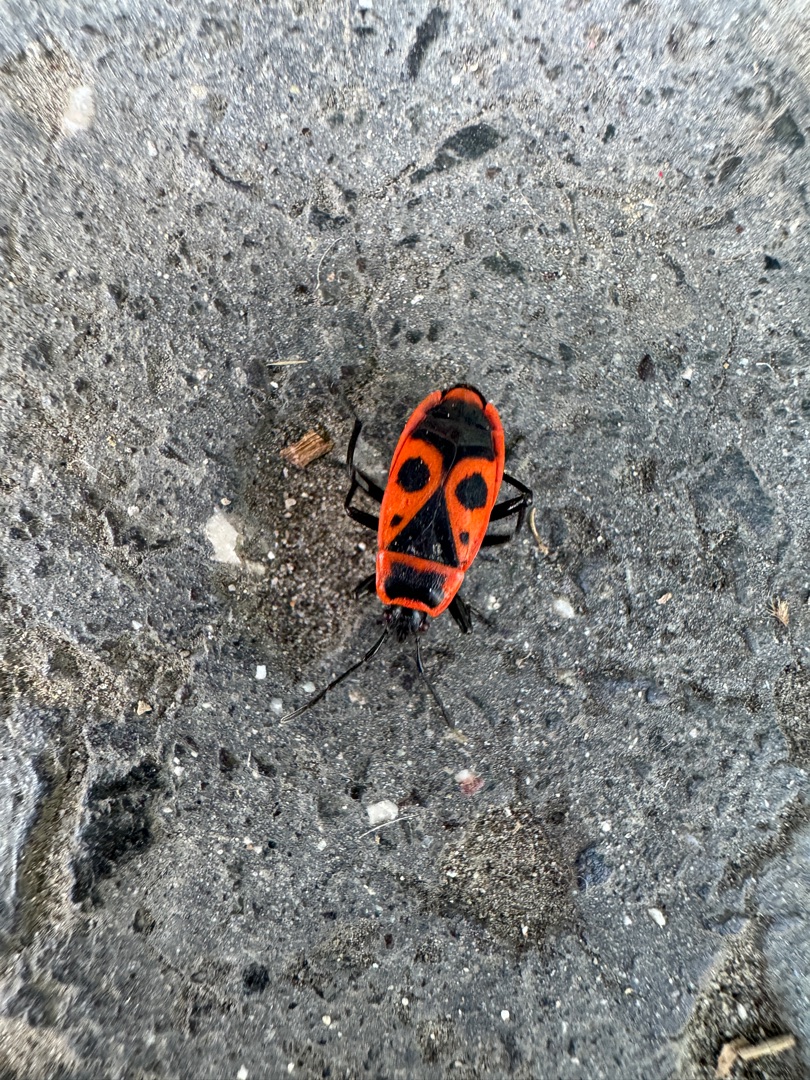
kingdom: Animalia
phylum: Arthropoda
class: Insecta
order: Hemiptera
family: Pyrrhocoridae
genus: Pyrrhocoris
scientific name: Pyrrhocoris apterus
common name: Ildtæge
